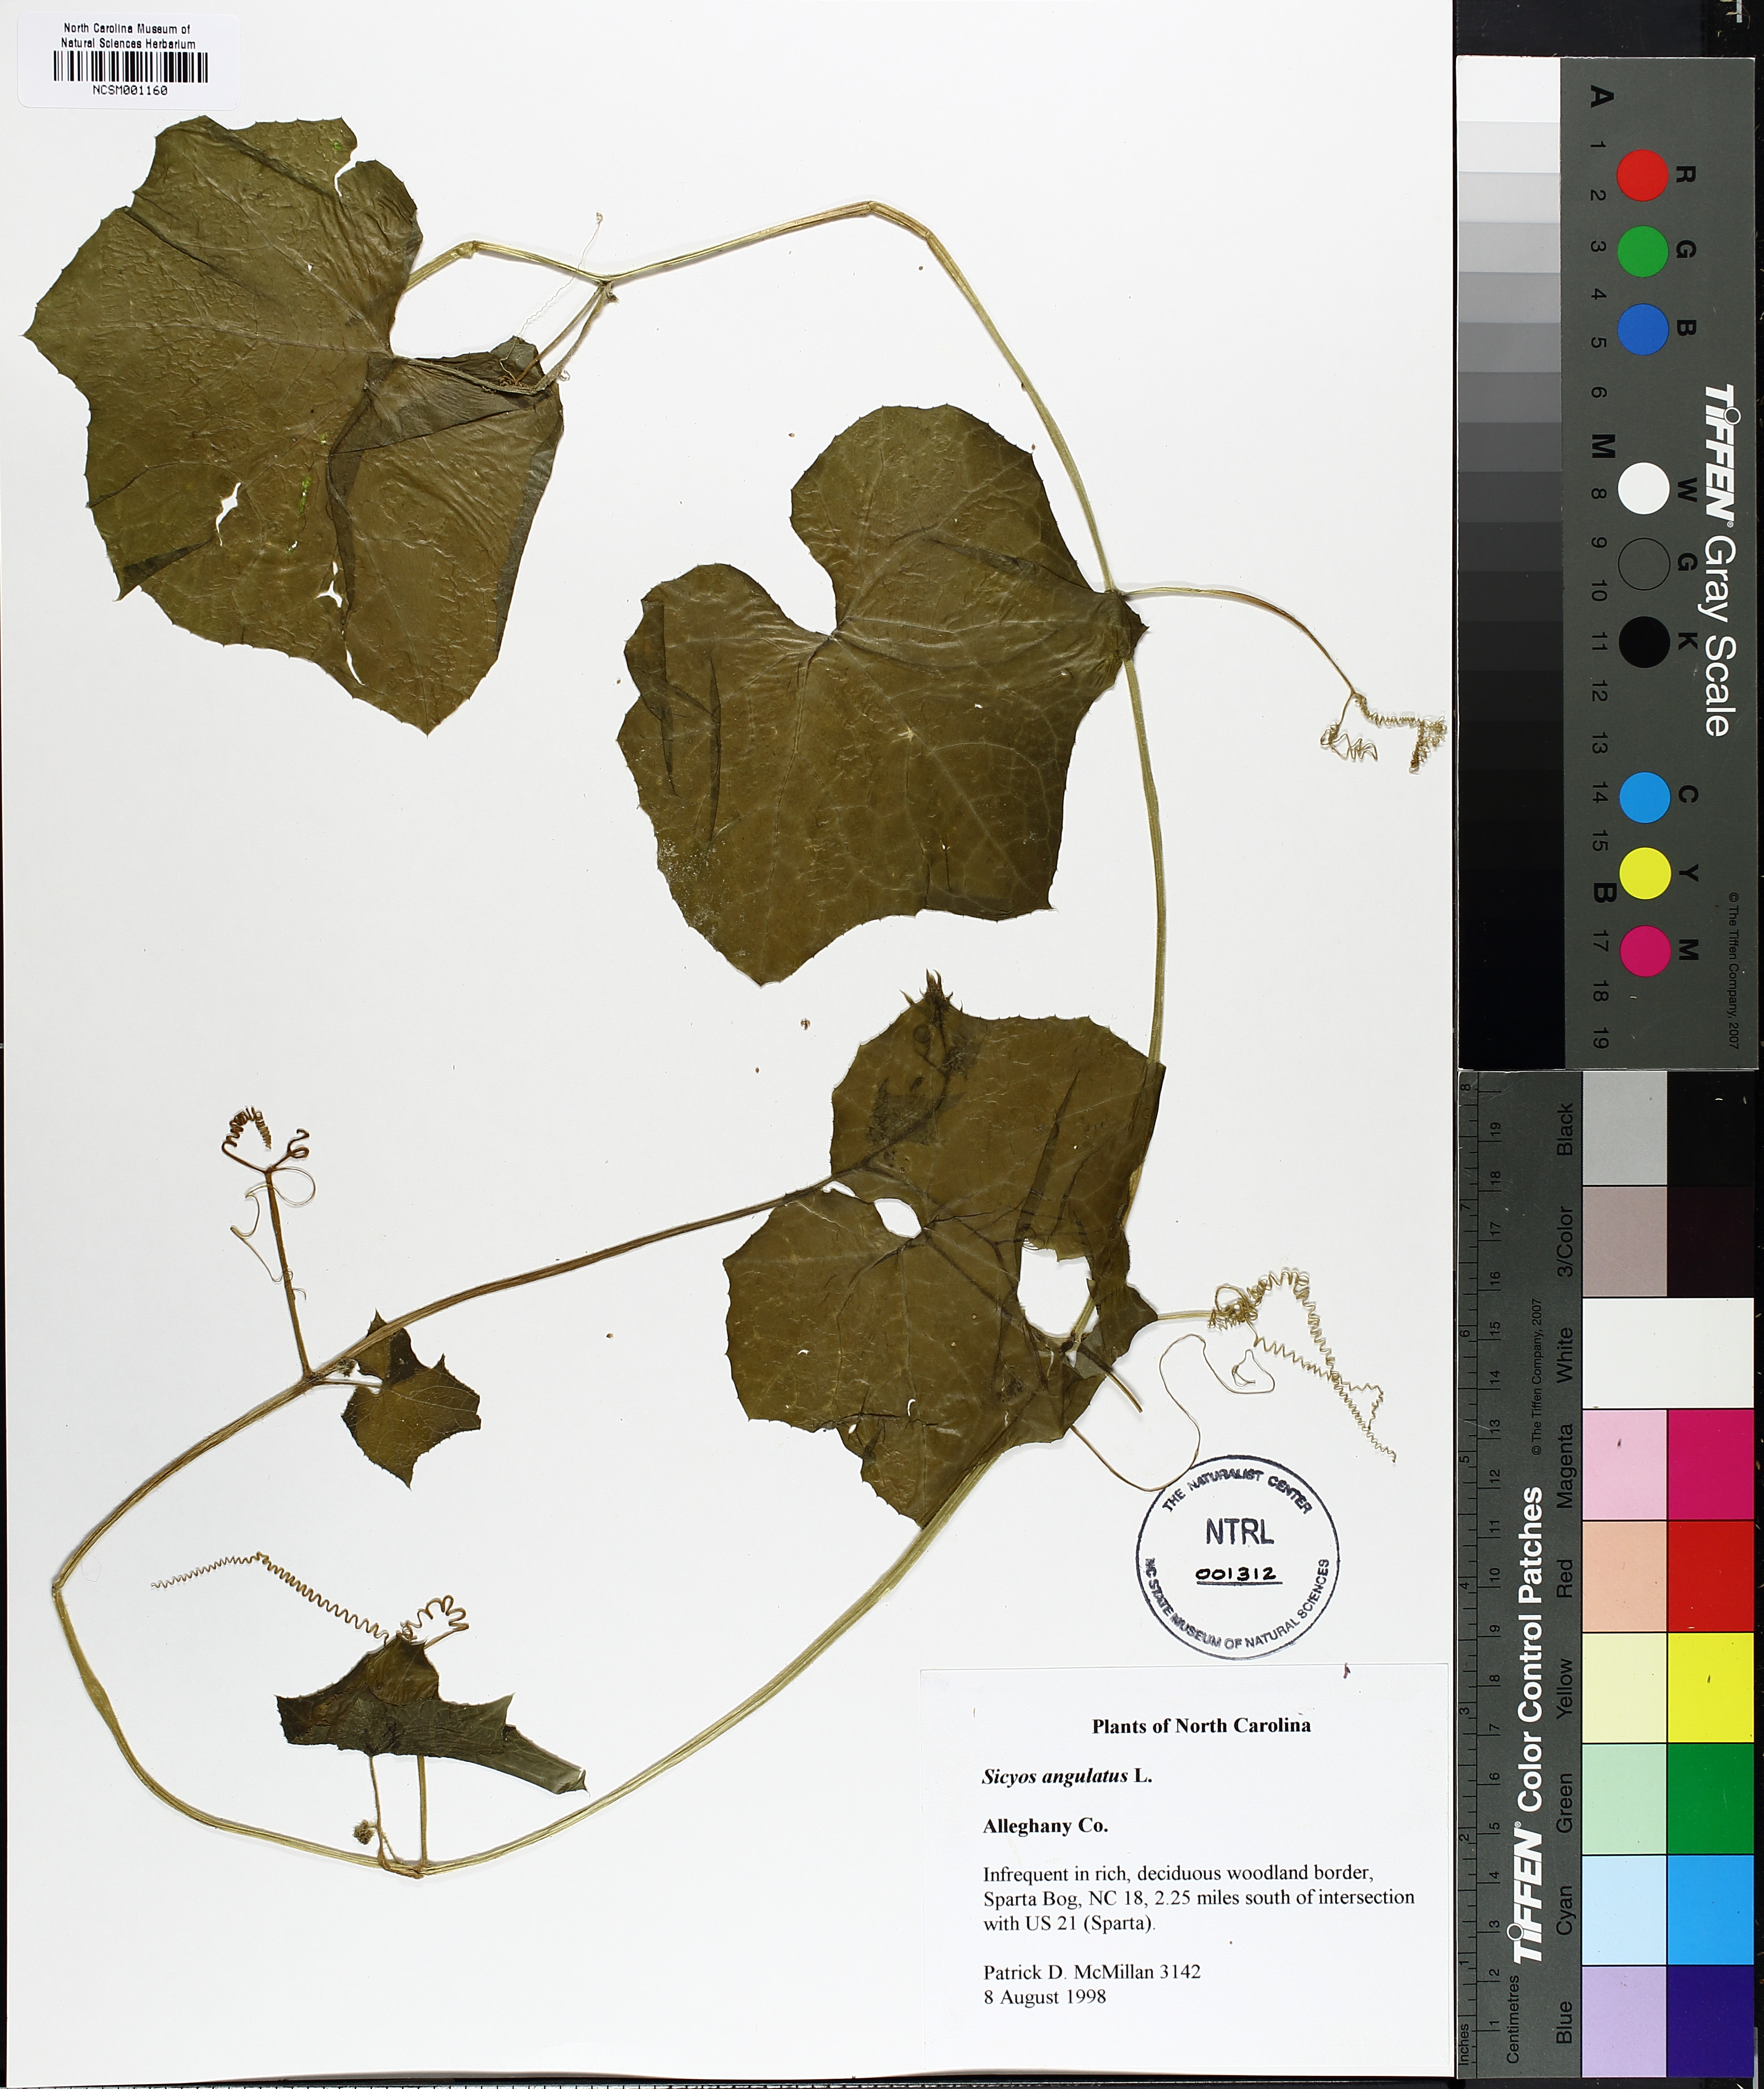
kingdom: Plantae
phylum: Tracheophyta
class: Magnoliopsida
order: Cucurbitales
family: Cucurbitaceae
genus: Sicyos
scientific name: Sicyos angulatus
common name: Angled burr cucumber
